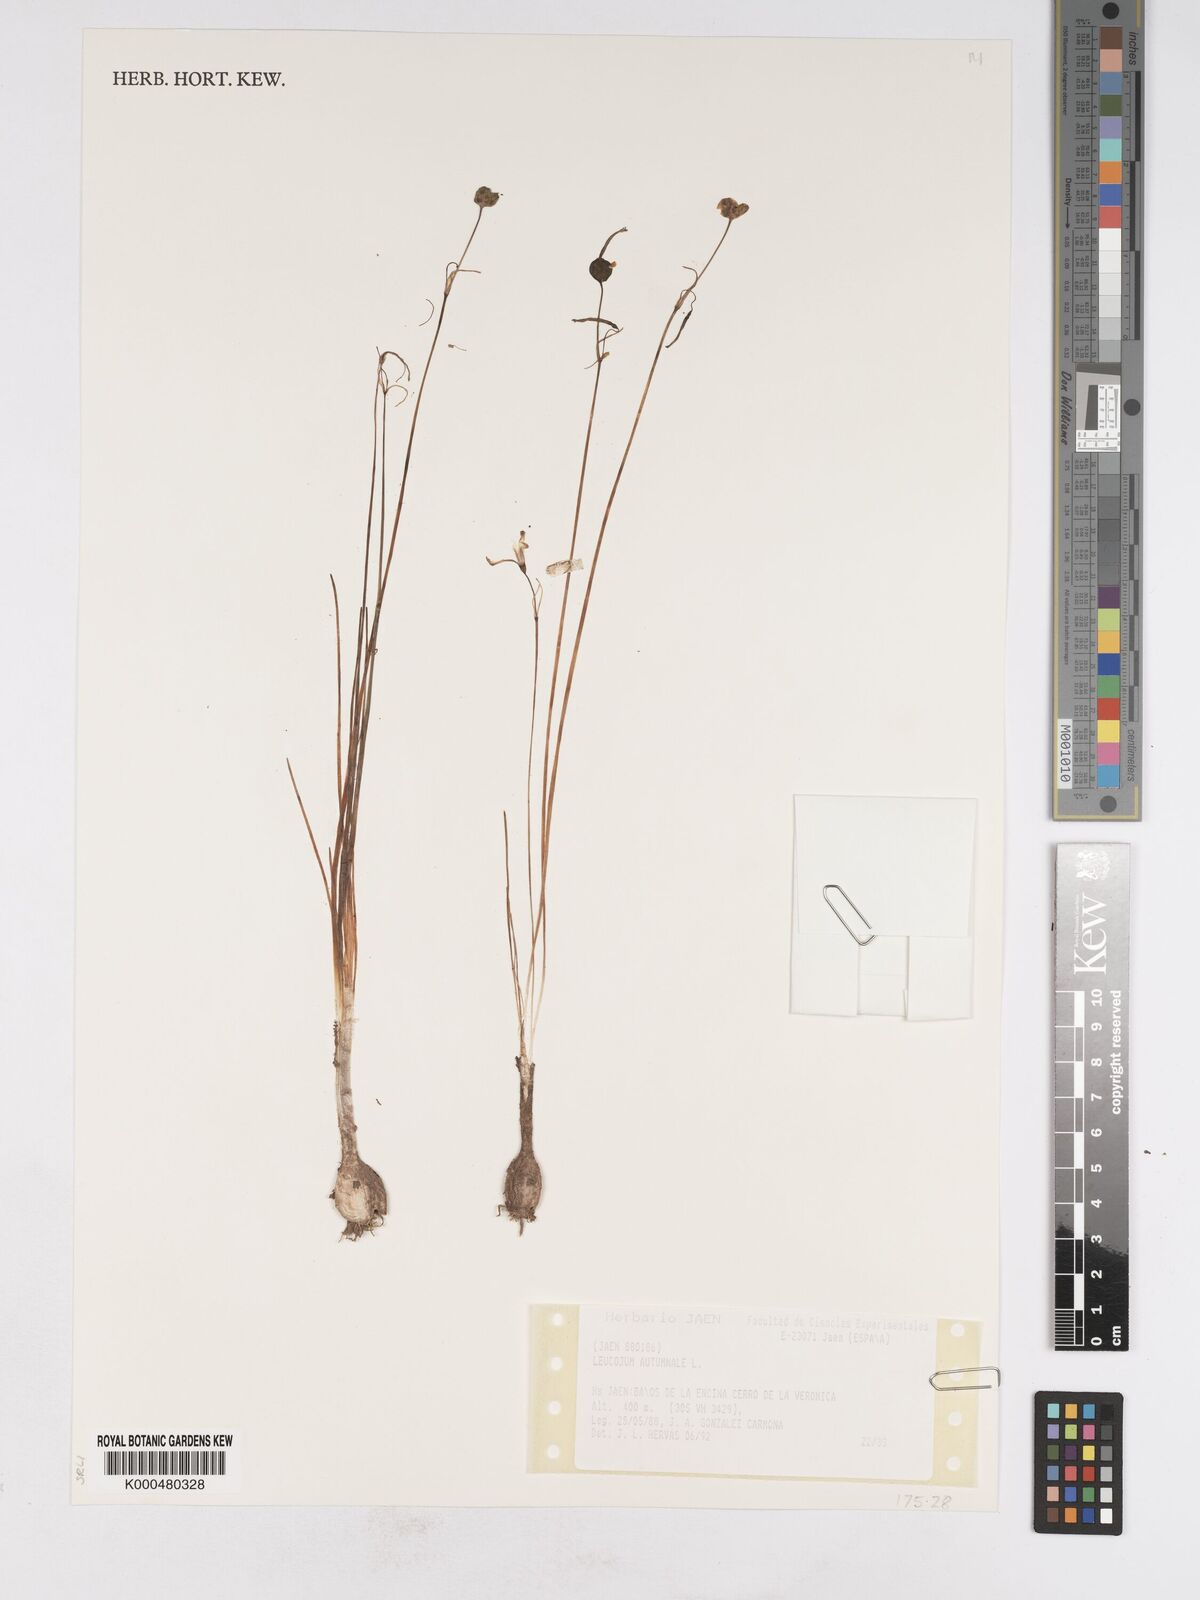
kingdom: Plantae
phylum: Tracheophyta
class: Liliopsida
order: Asparagales
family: Amaryllidaceae
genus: Acis
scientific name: Acis autumnalis
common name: Autumn snowflake
